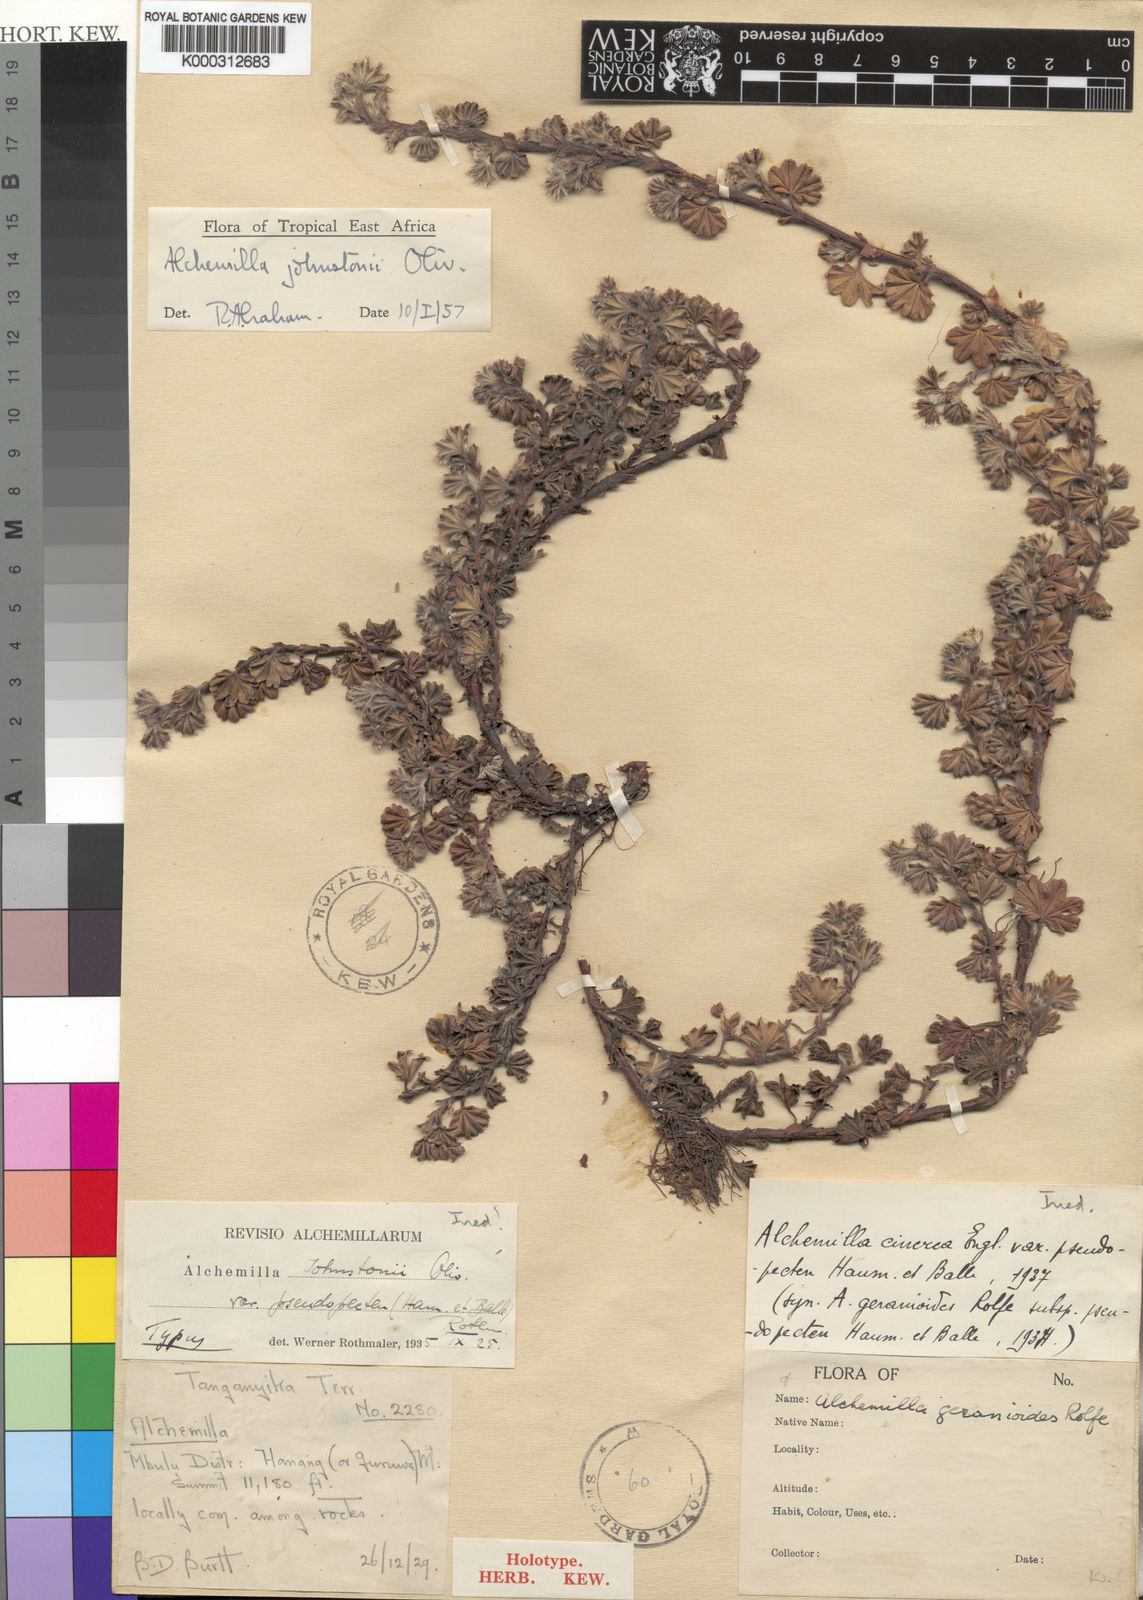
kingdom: Plantae
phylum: Tracheophyta
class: Magnoliopsida
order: Rosales
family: Rosaceae
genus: Alchemilla
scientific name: Alchemilla johnstonii
